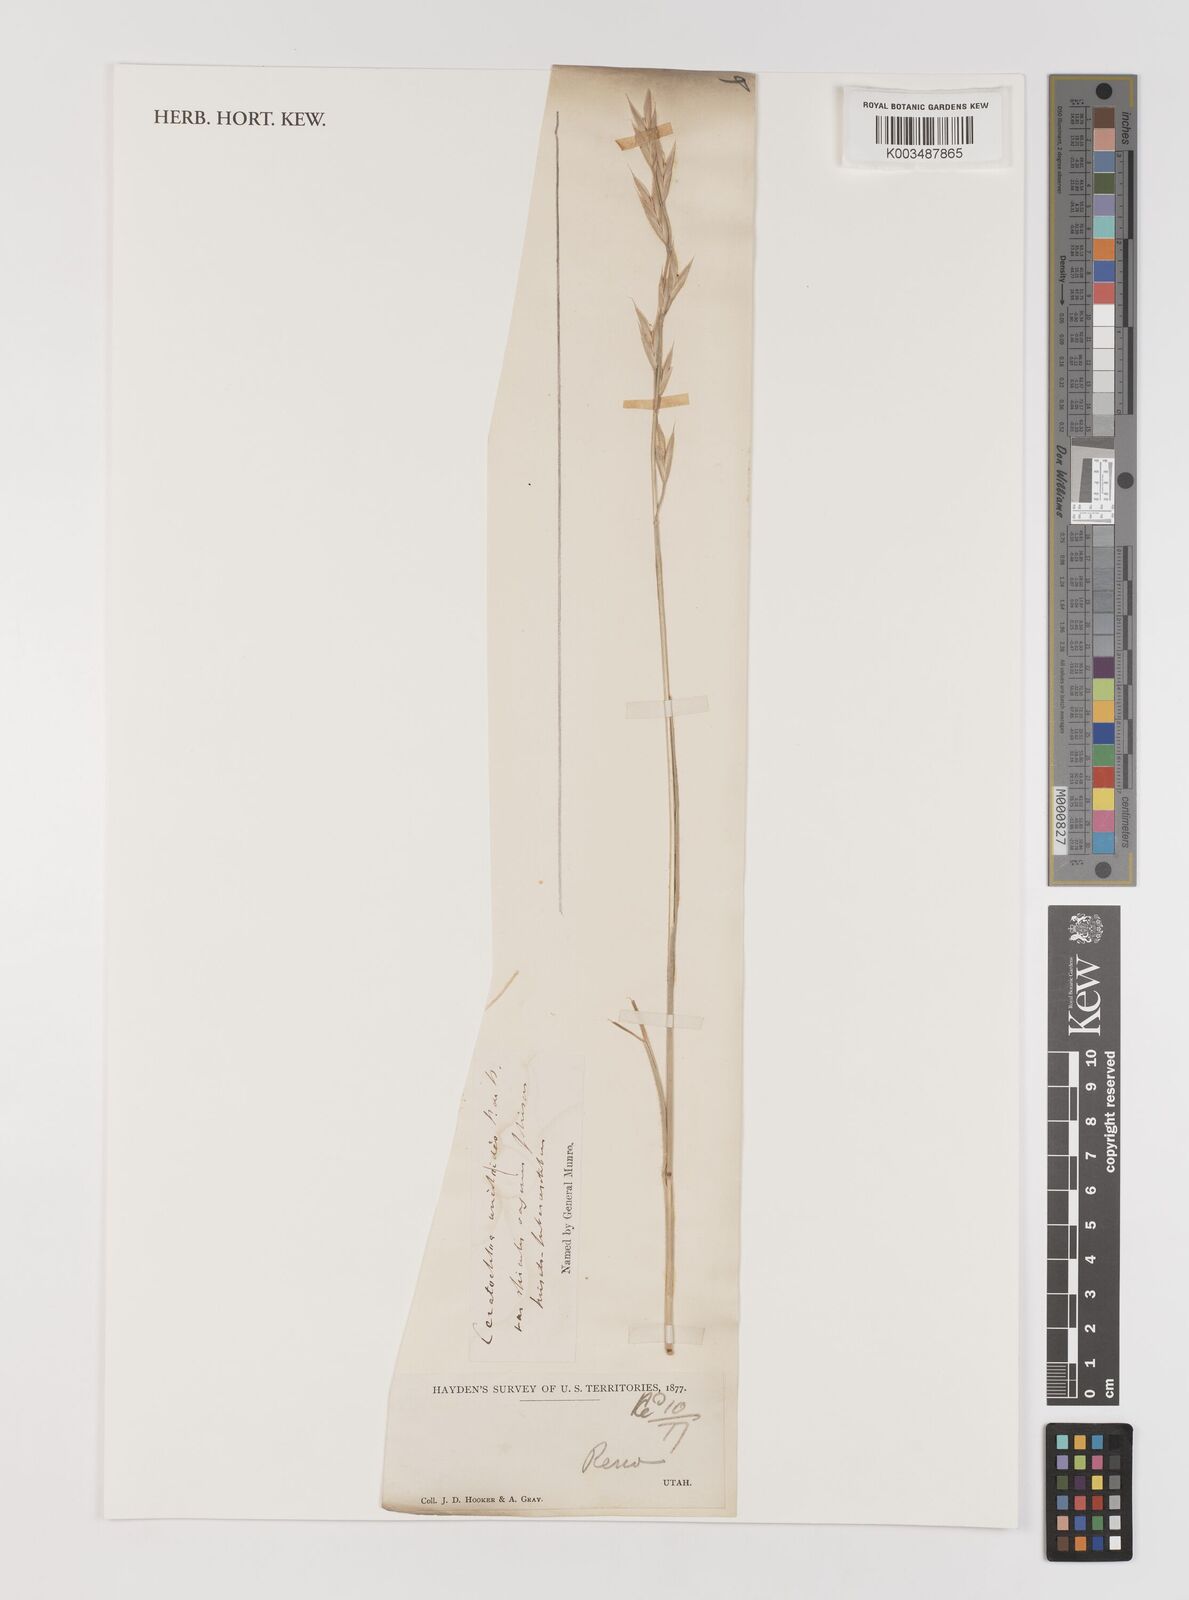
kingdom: Plantae
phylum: Tracheophyta
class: Liliopsida
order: Poales
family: Poaceae
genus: Bromus
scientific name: Bromus catharticus
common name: Rescuegrass
